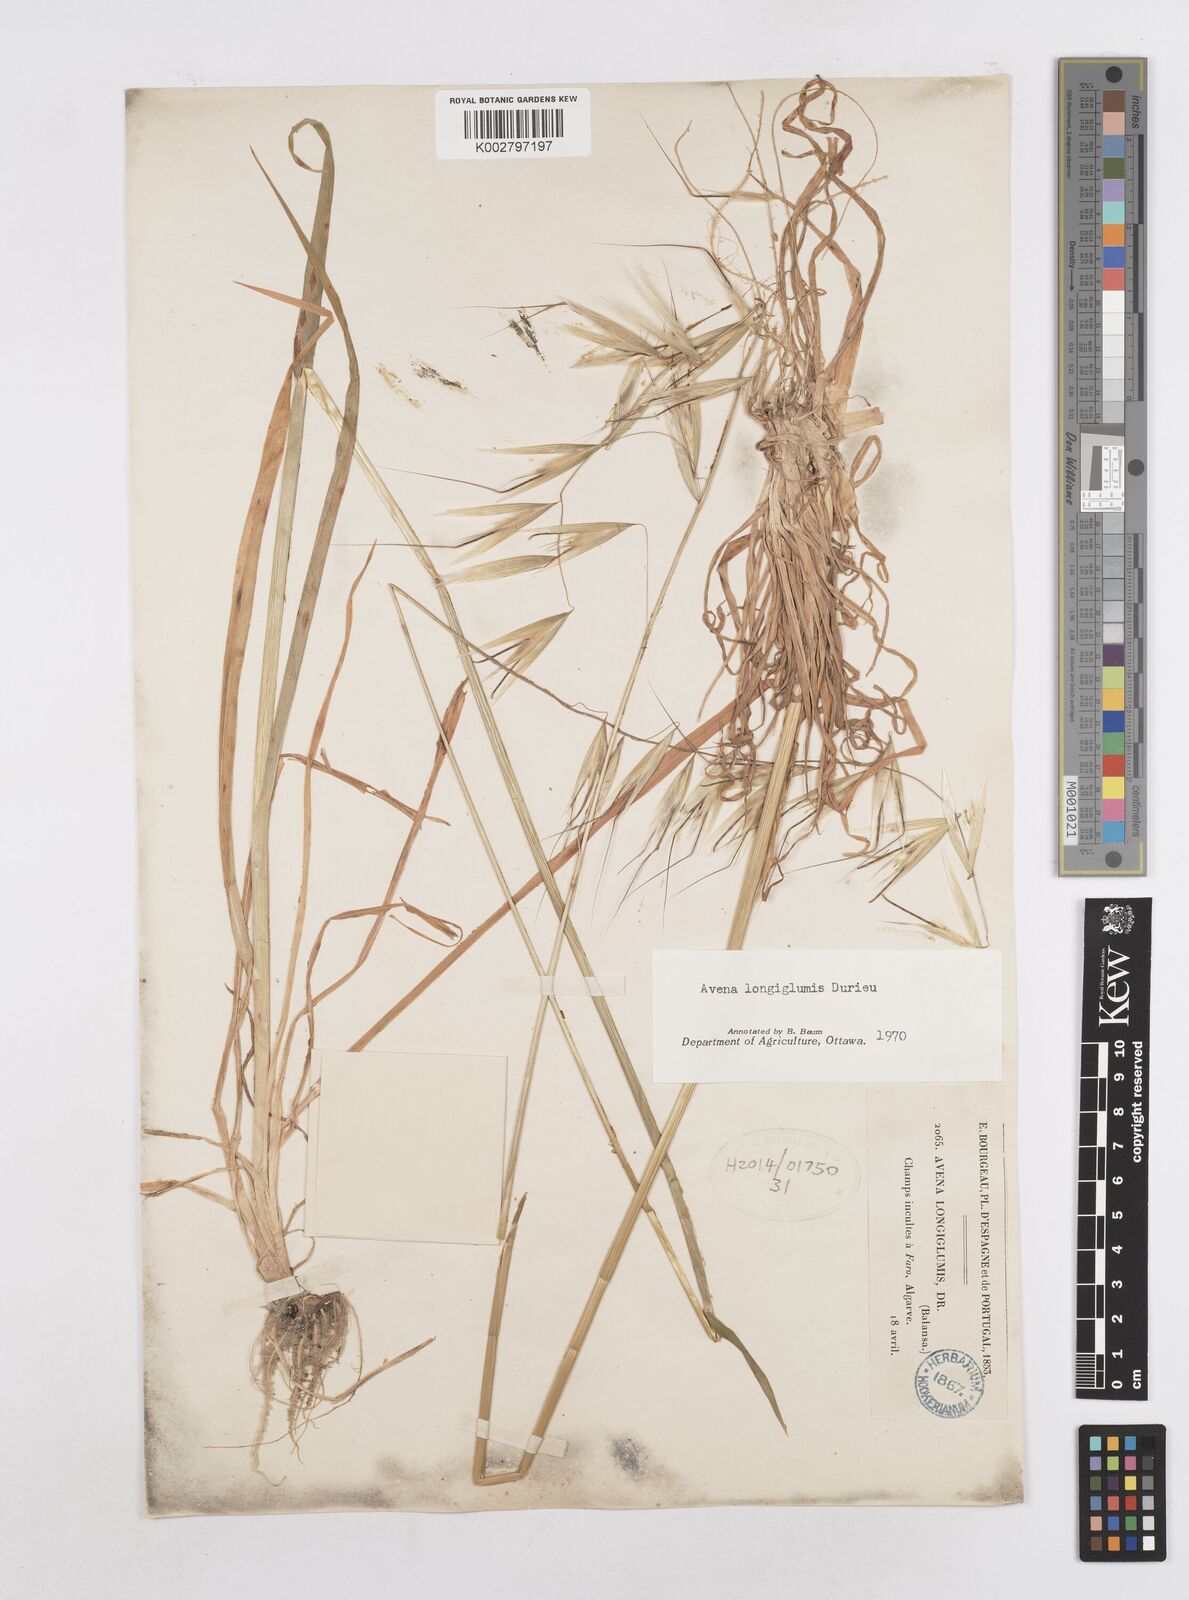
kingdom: Plantae
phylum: Tracheophyta
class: Liliopsida
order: Poales
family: Poaceae
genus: Avena
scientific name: Avena longiglumis
